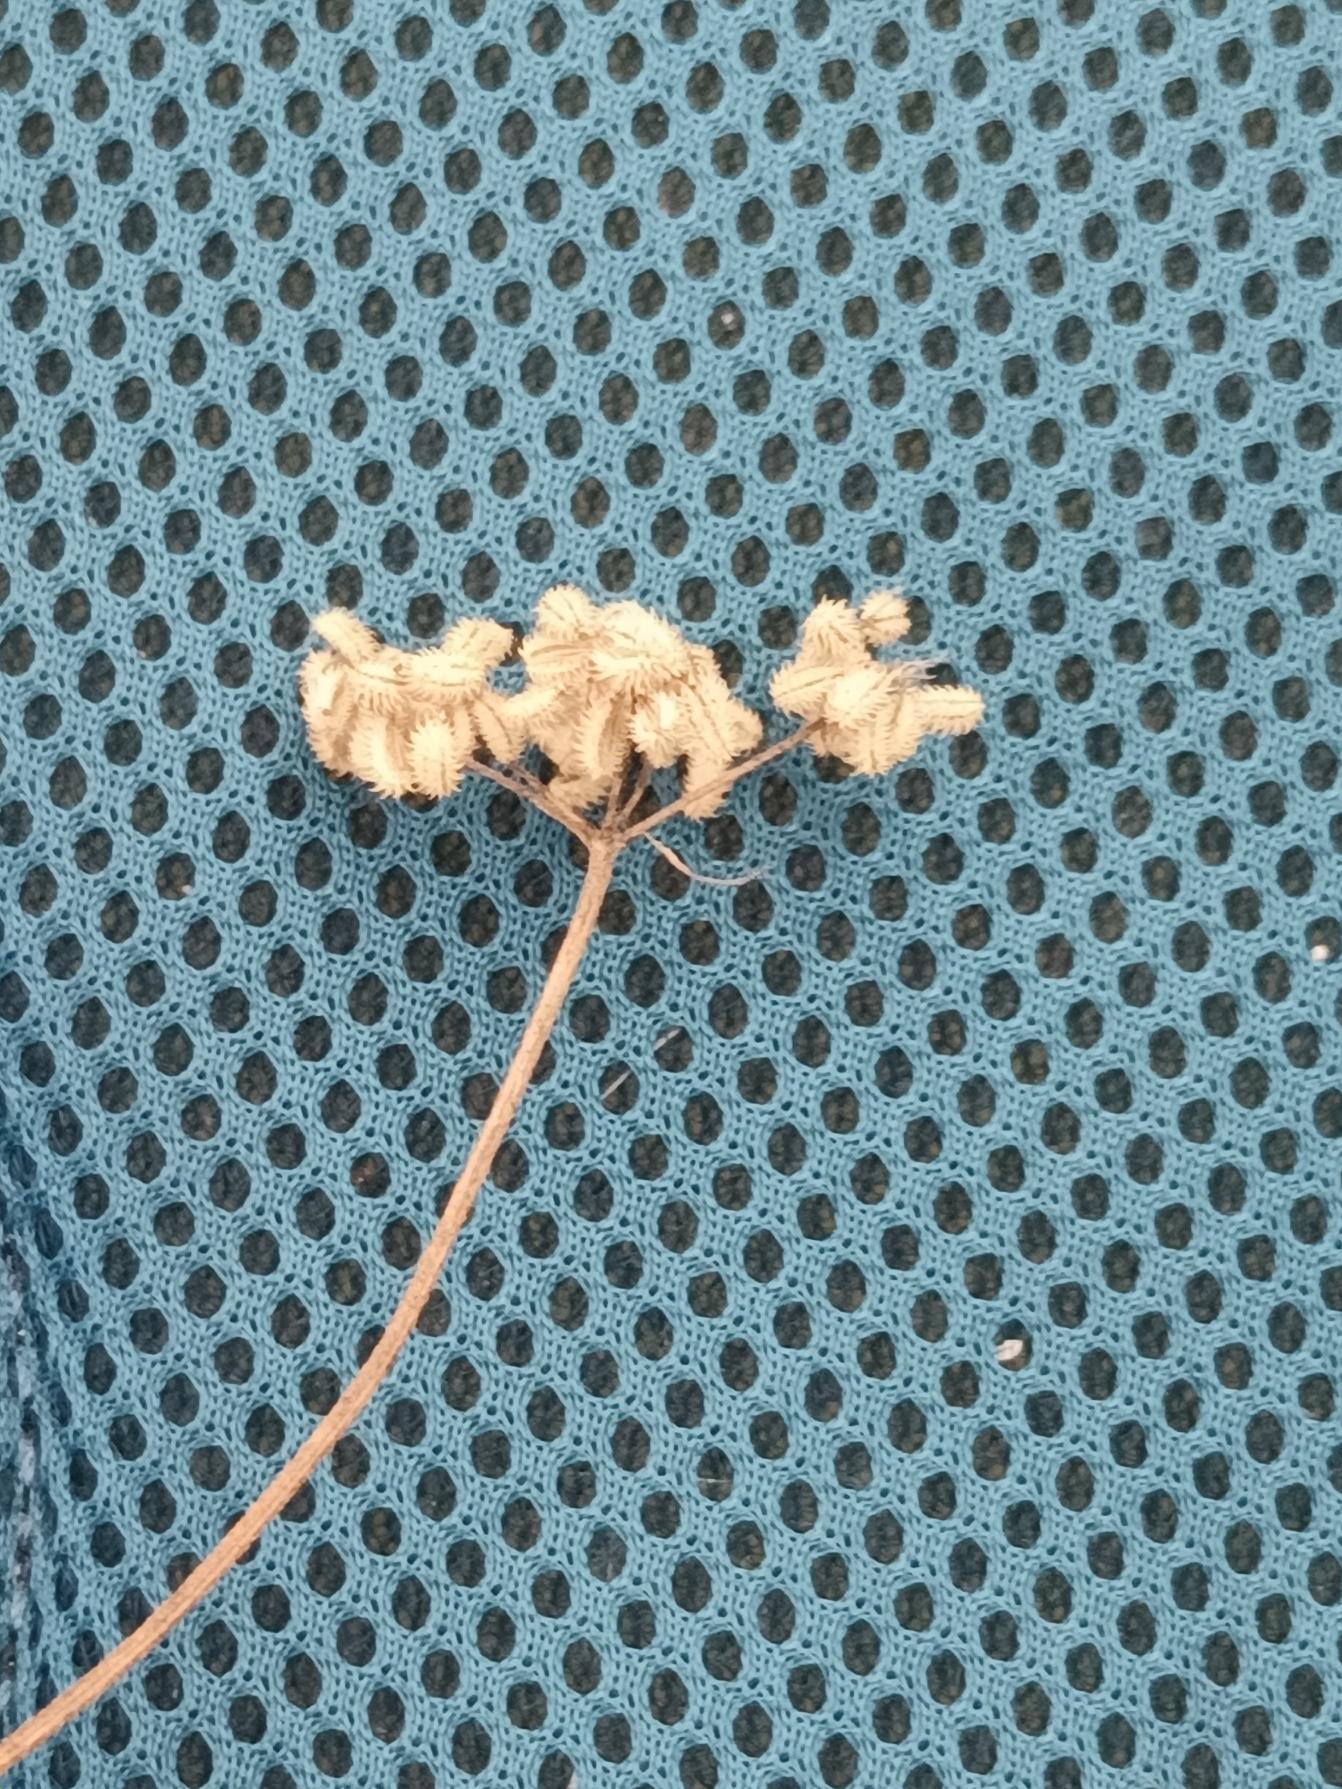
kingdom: Plantae
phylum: Tracheophyta
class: Magnoliopsida
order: Apiales
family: Apiaceae
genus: Torilis
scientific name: Torilis japonica
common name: Hvas randfrø
